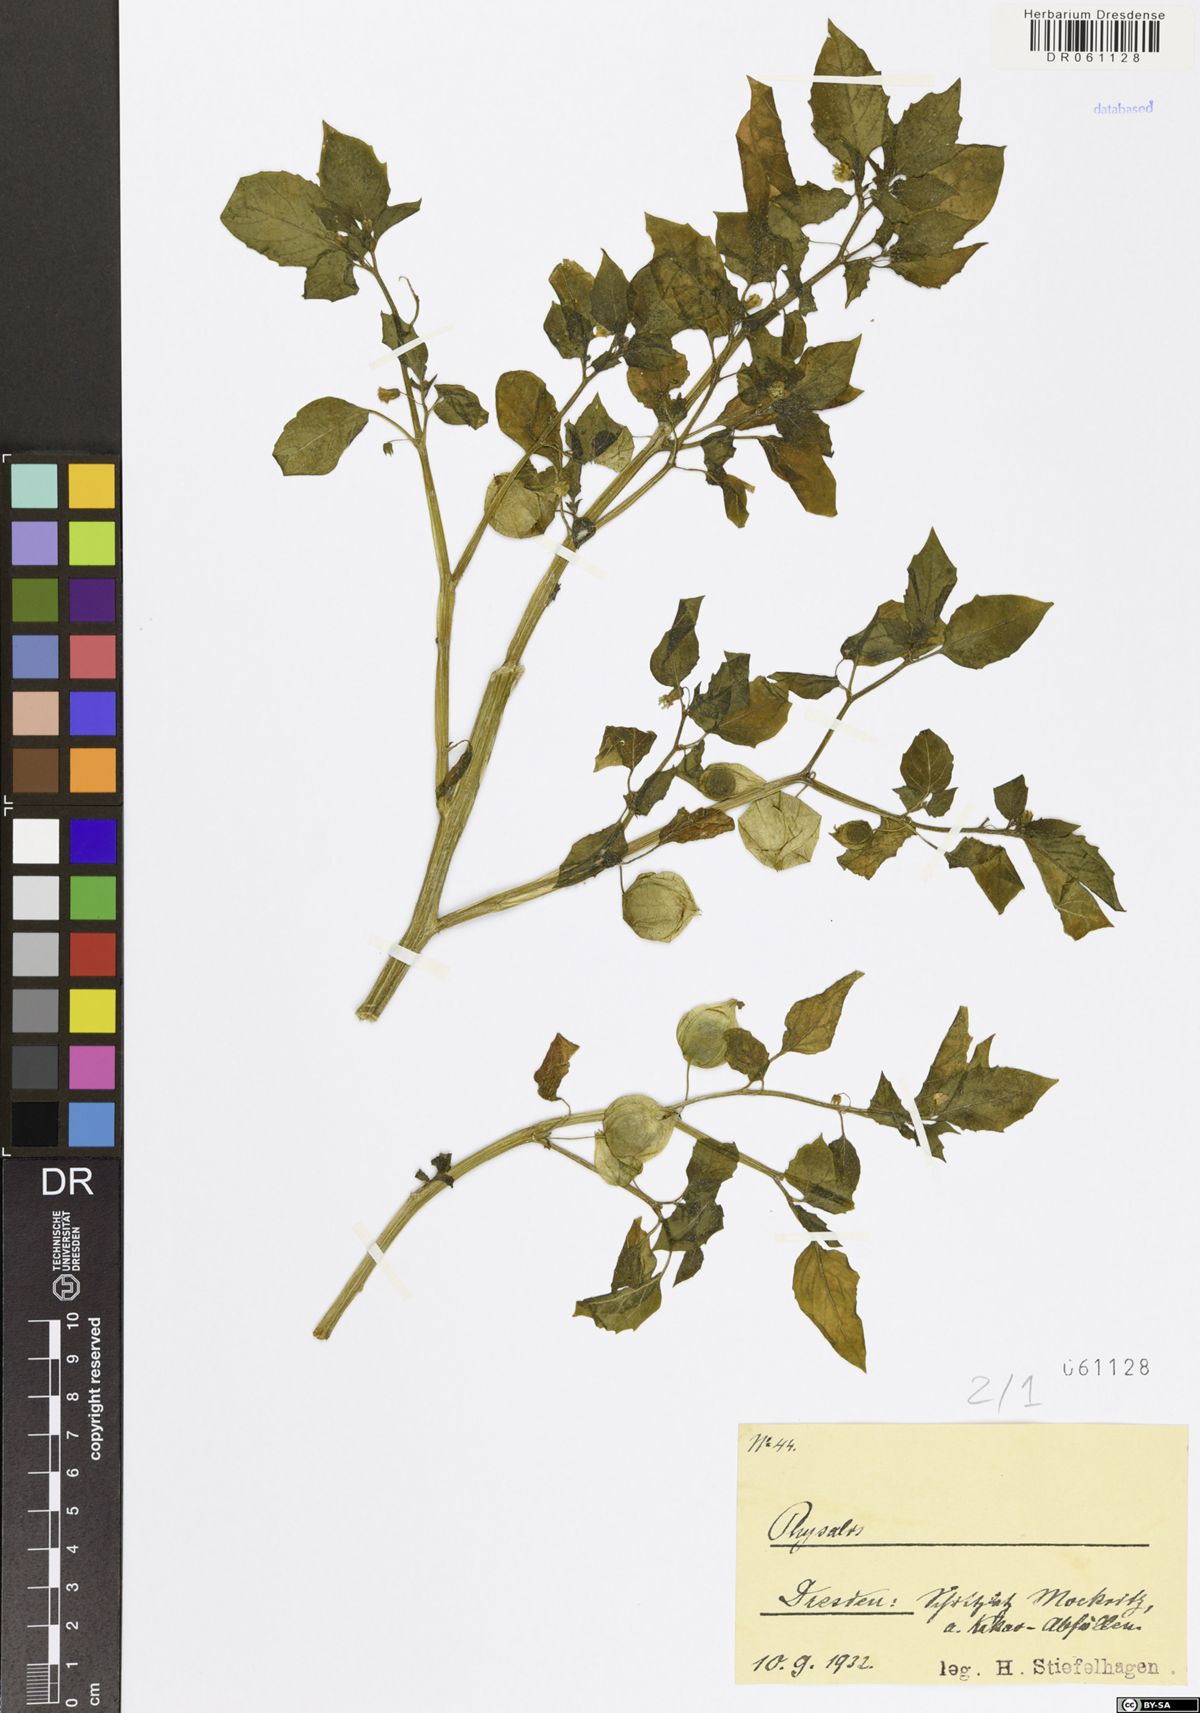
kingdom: Plantae
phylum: Tracheophyta
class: Magnoliopsida
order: Solanales
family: Solanaceae
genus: Physalis
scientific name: Physalis
